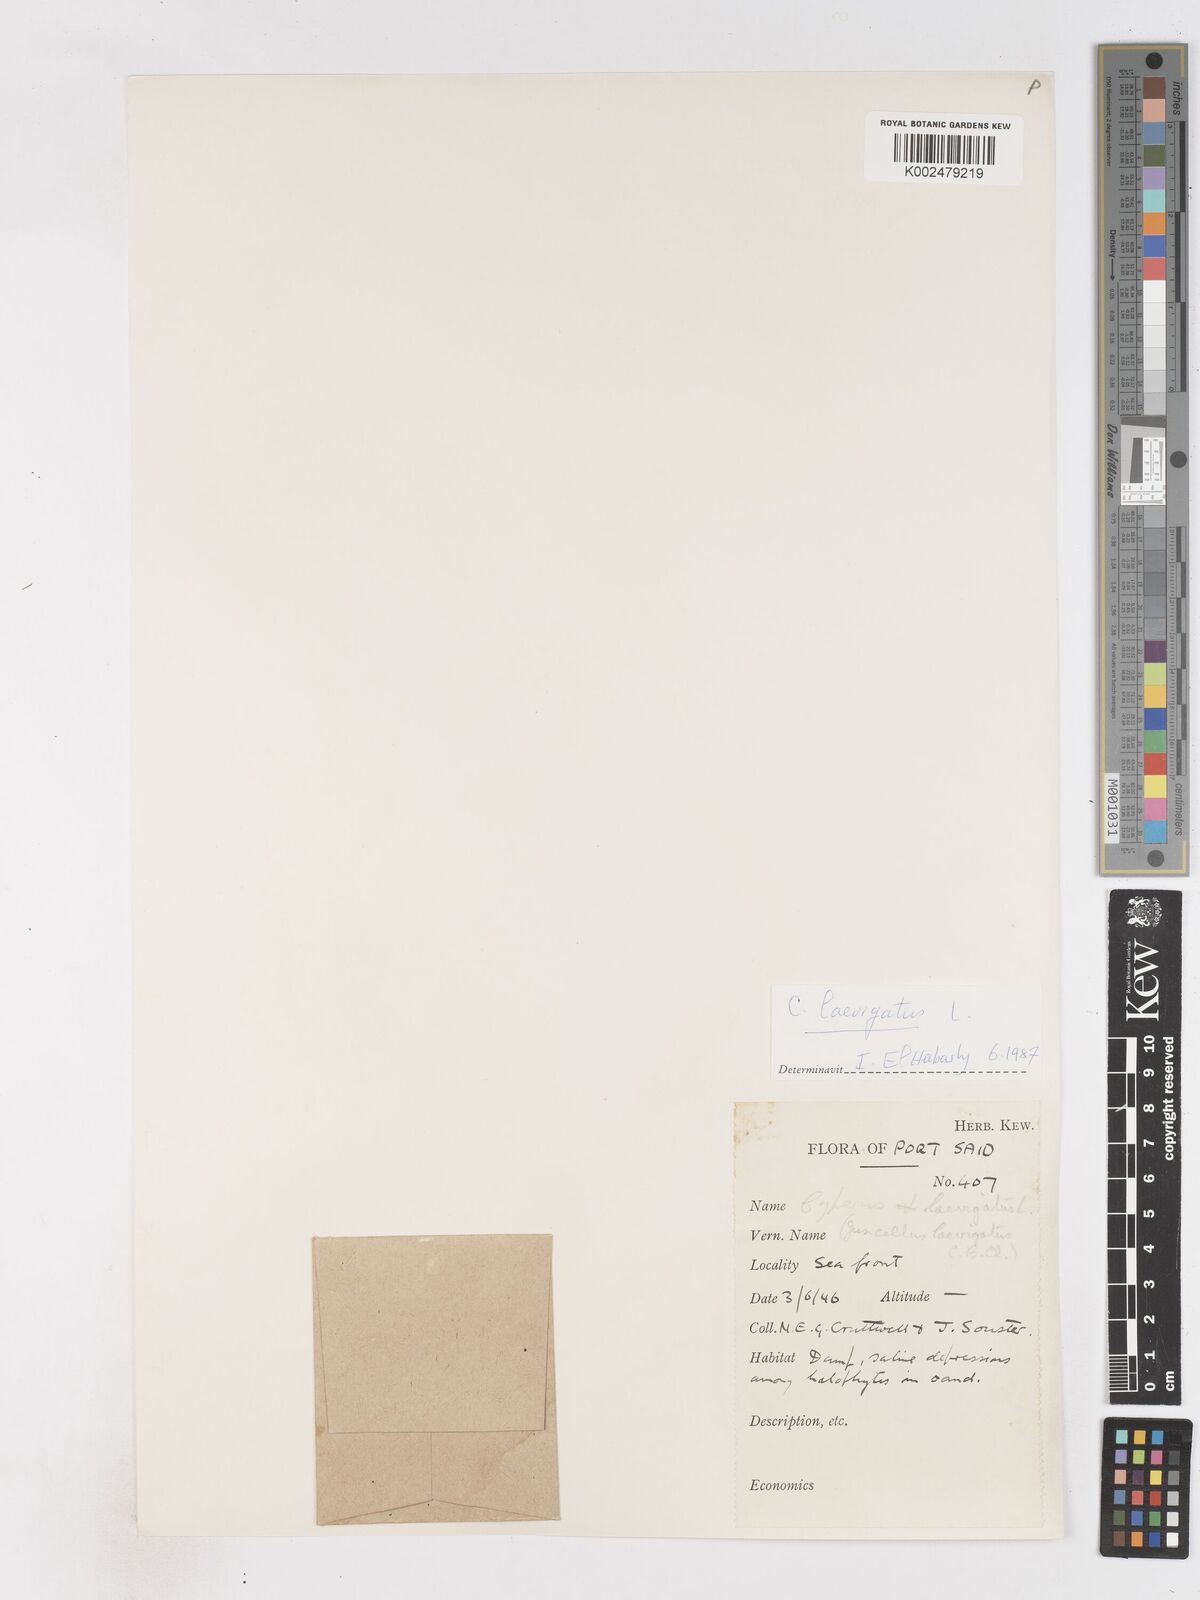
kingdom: Plantae
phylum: Tracheophyta
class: Liliopsida
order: Poales
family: Cyperaceae
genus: Cyperus
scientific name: Cyperus laevigatus
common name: Smooth flat sedge
